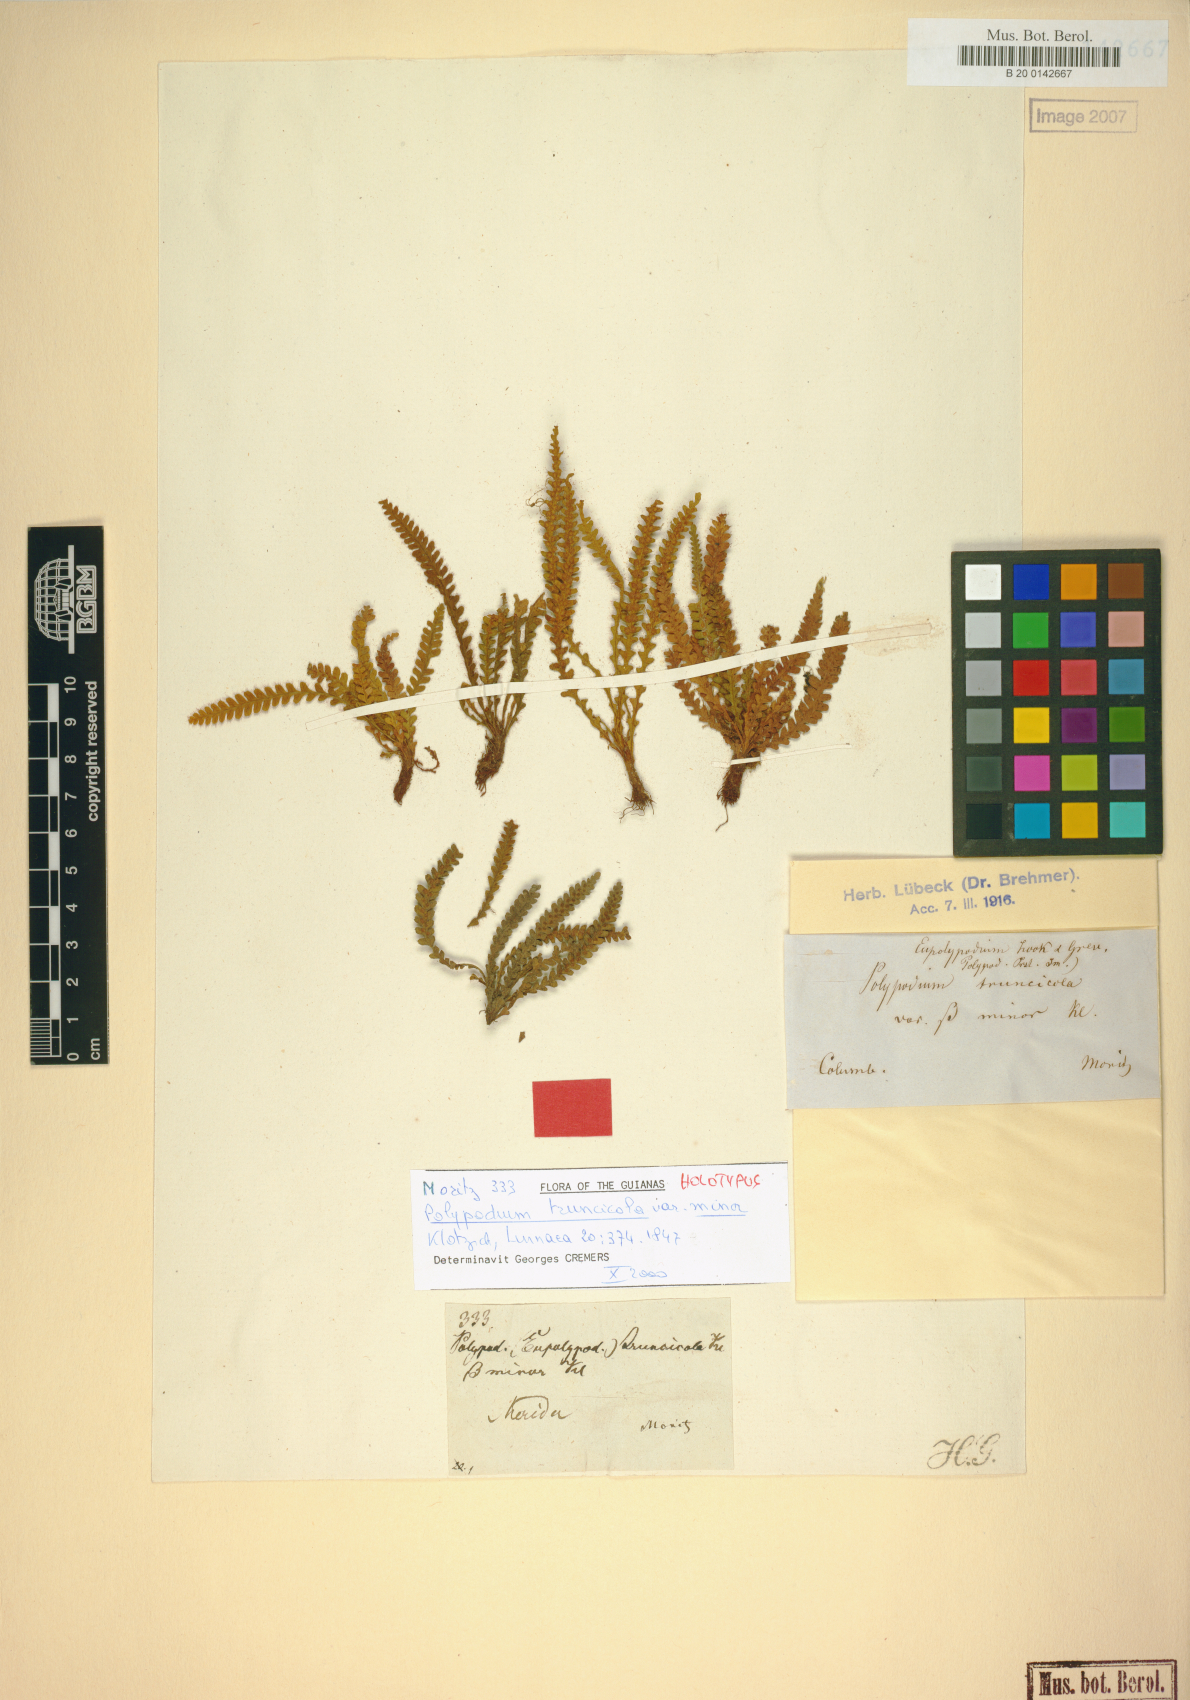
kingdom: Plantae
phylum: Tracheophyta
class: Polypodiopsida
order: Polypodiales
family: Polypodiaceae
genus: Moranopteris
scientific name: Moranopteris truncicola
